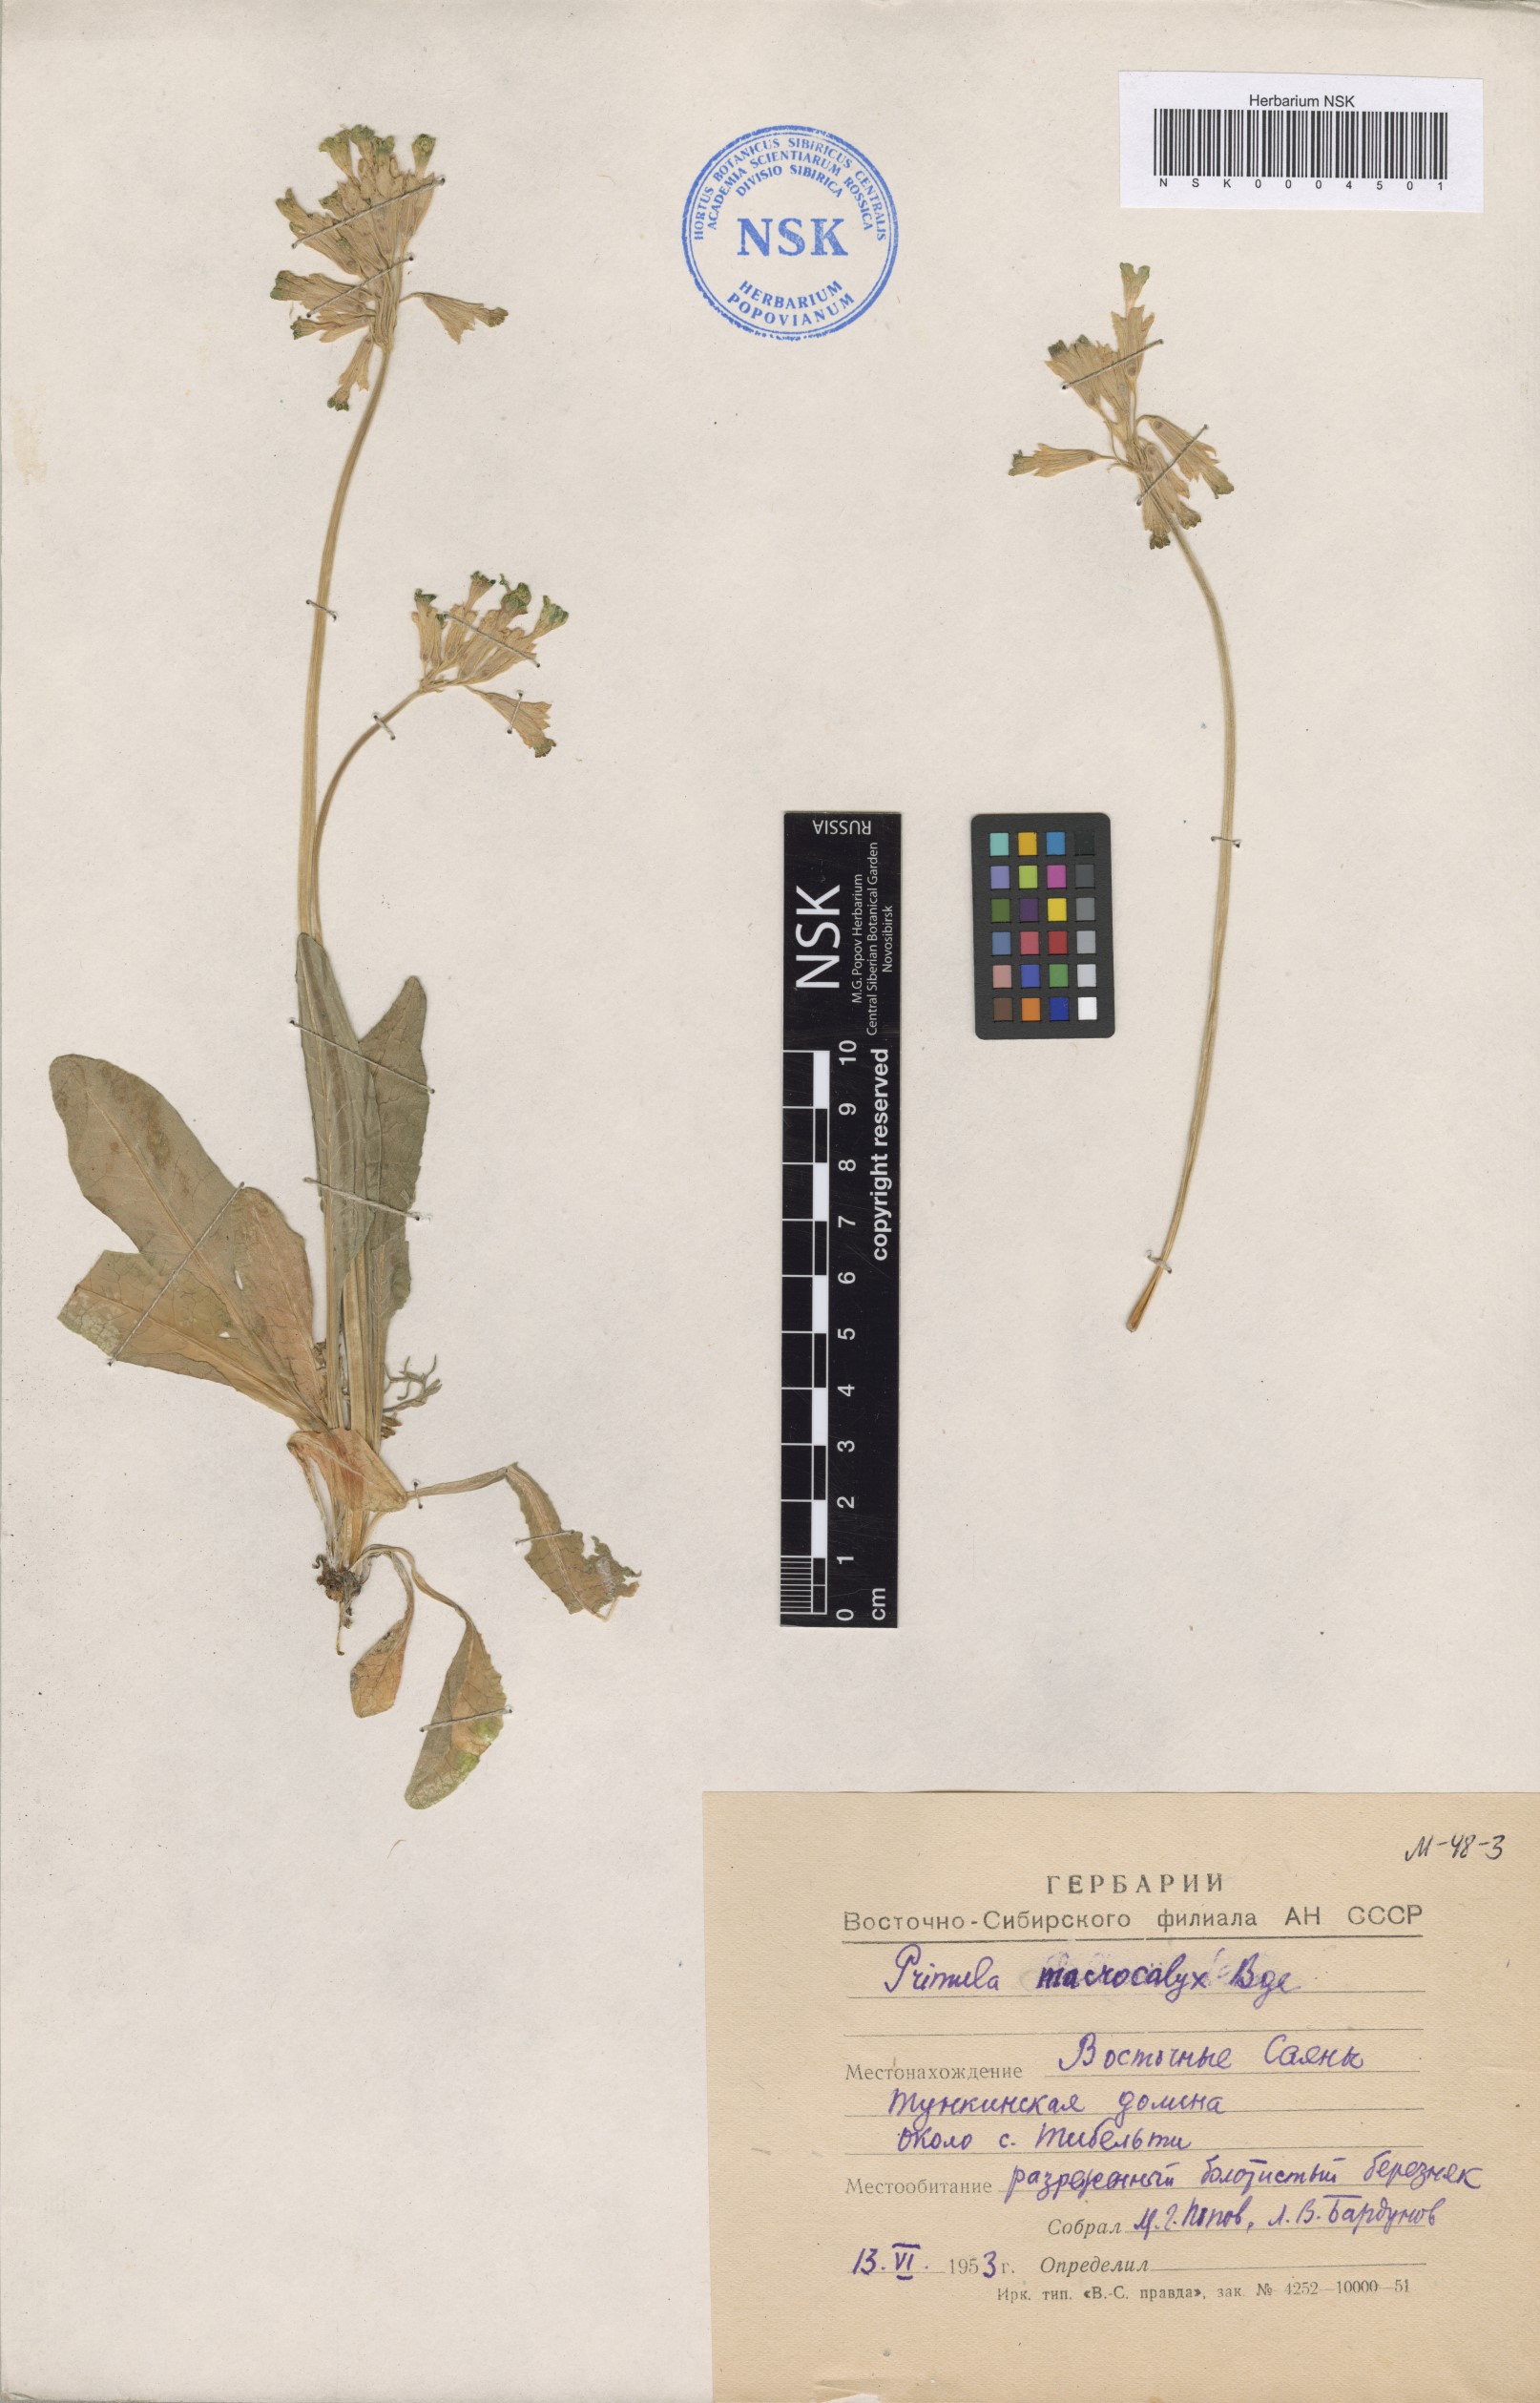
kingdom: Plantae
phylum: Tracheophyta
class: Magnoliopsida
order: Ericales
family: Primulaceae
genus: Primula
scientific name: Primula veris
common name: Cowslip
